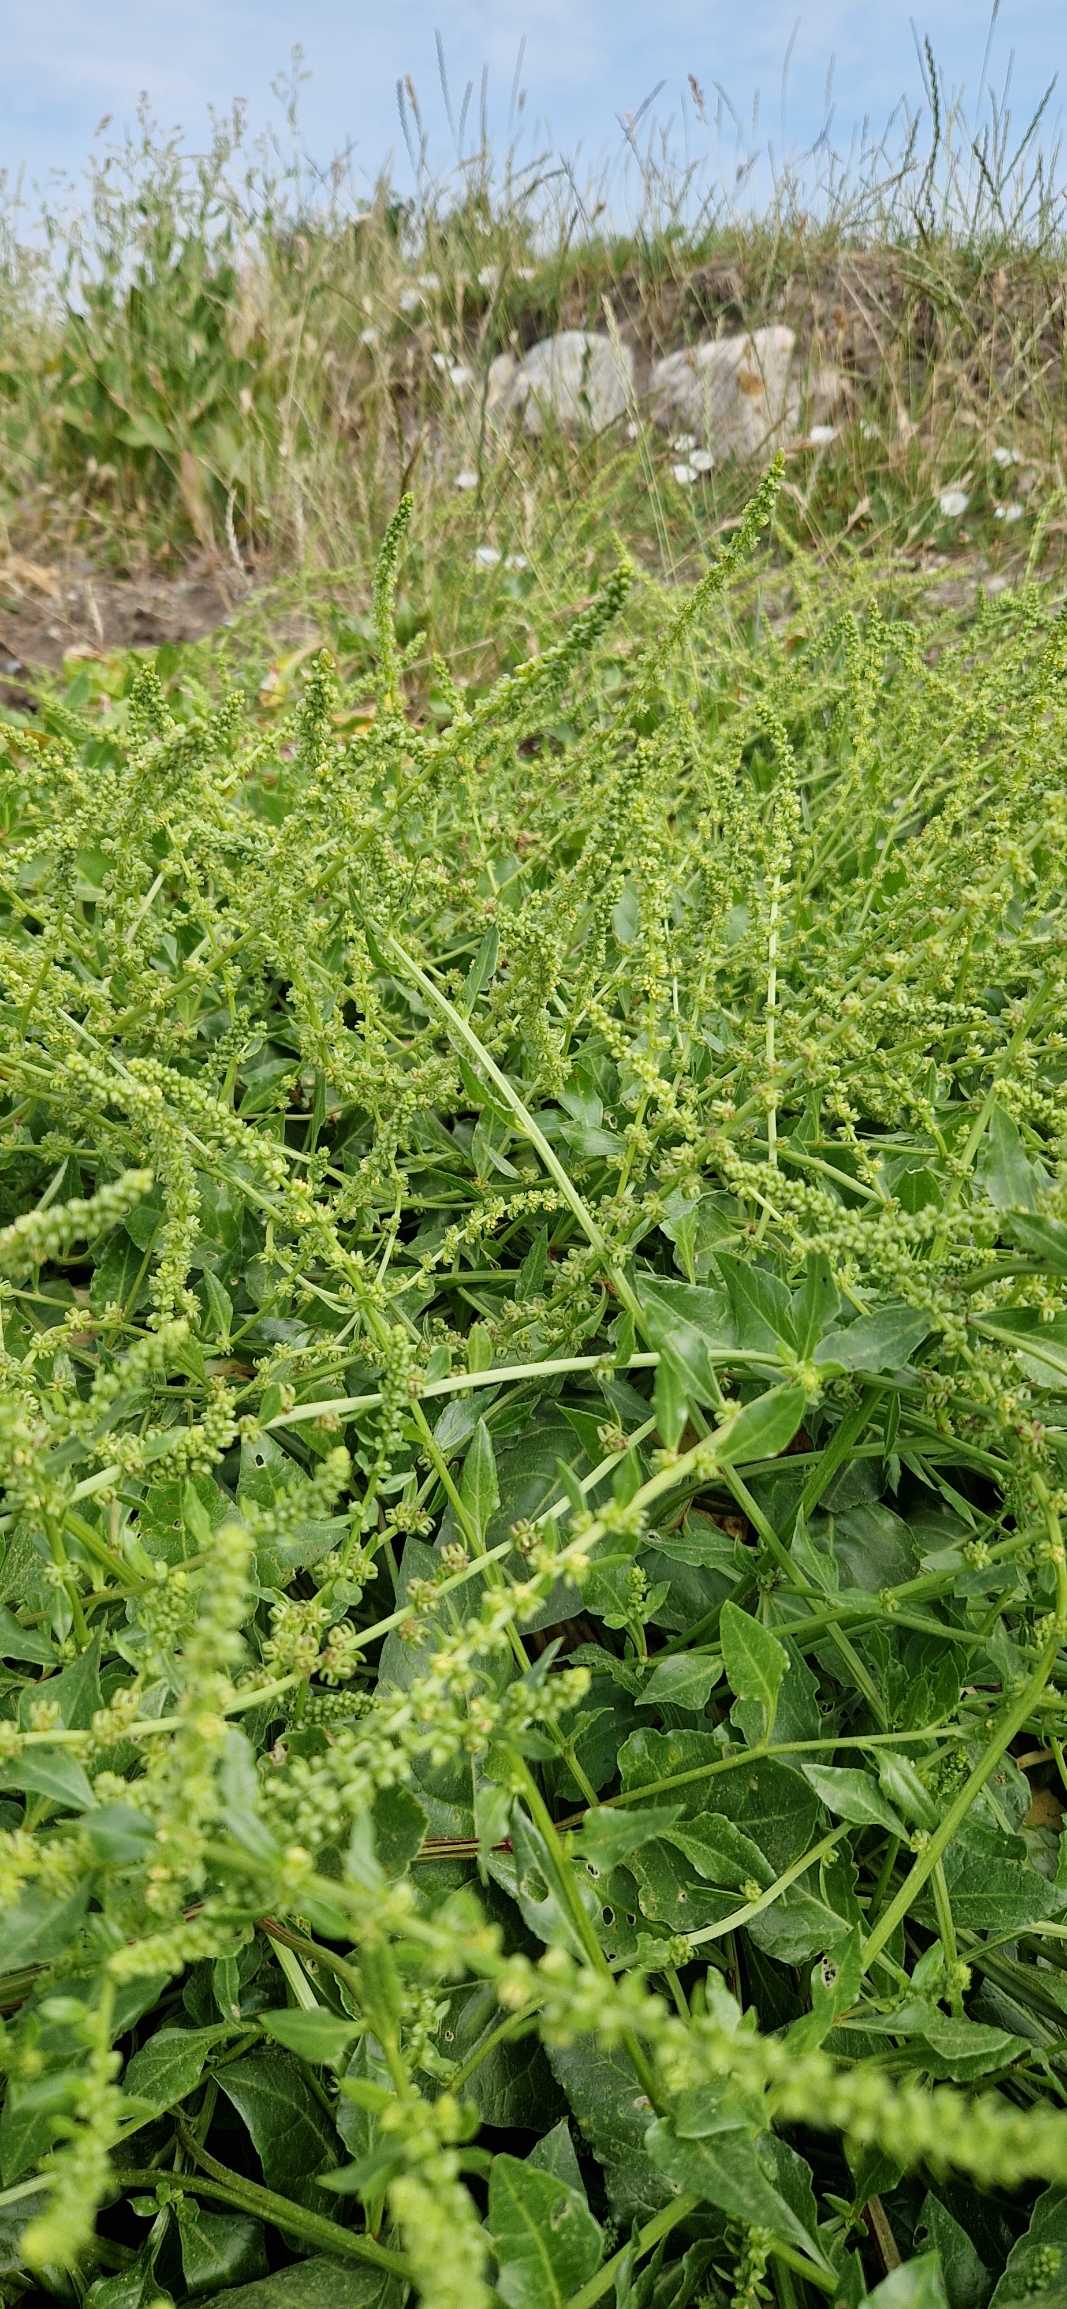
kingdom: Plantae
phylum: Tracheophyta
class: Magnoliopsida
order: Caryophyllales
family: Amaranthaceae
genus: Beta
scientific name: Beta maritima
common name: Strand-bede
